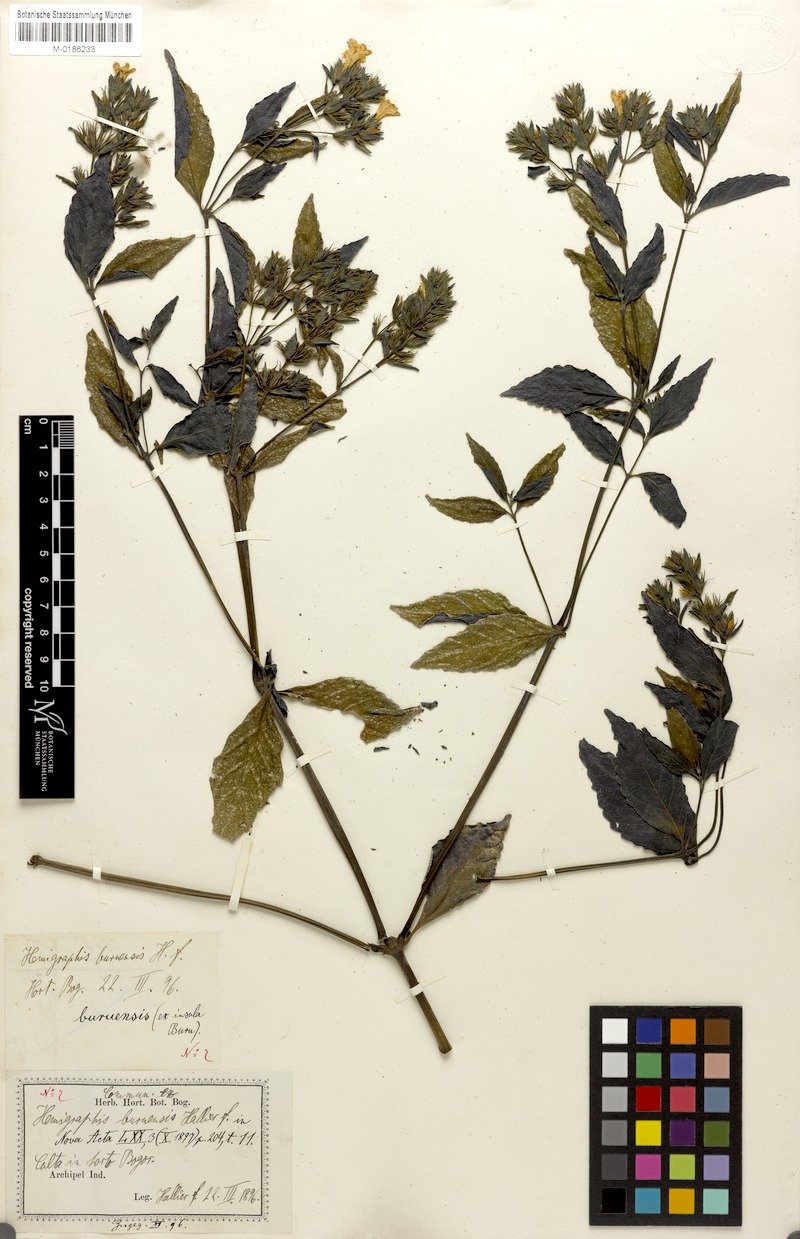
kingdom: Plantae
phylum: Tracheophyta
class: Magnoliopsida
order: Lamiales
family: Acanthaceae
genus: Strobilanthes
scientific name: Strobilanthes linearifolia
